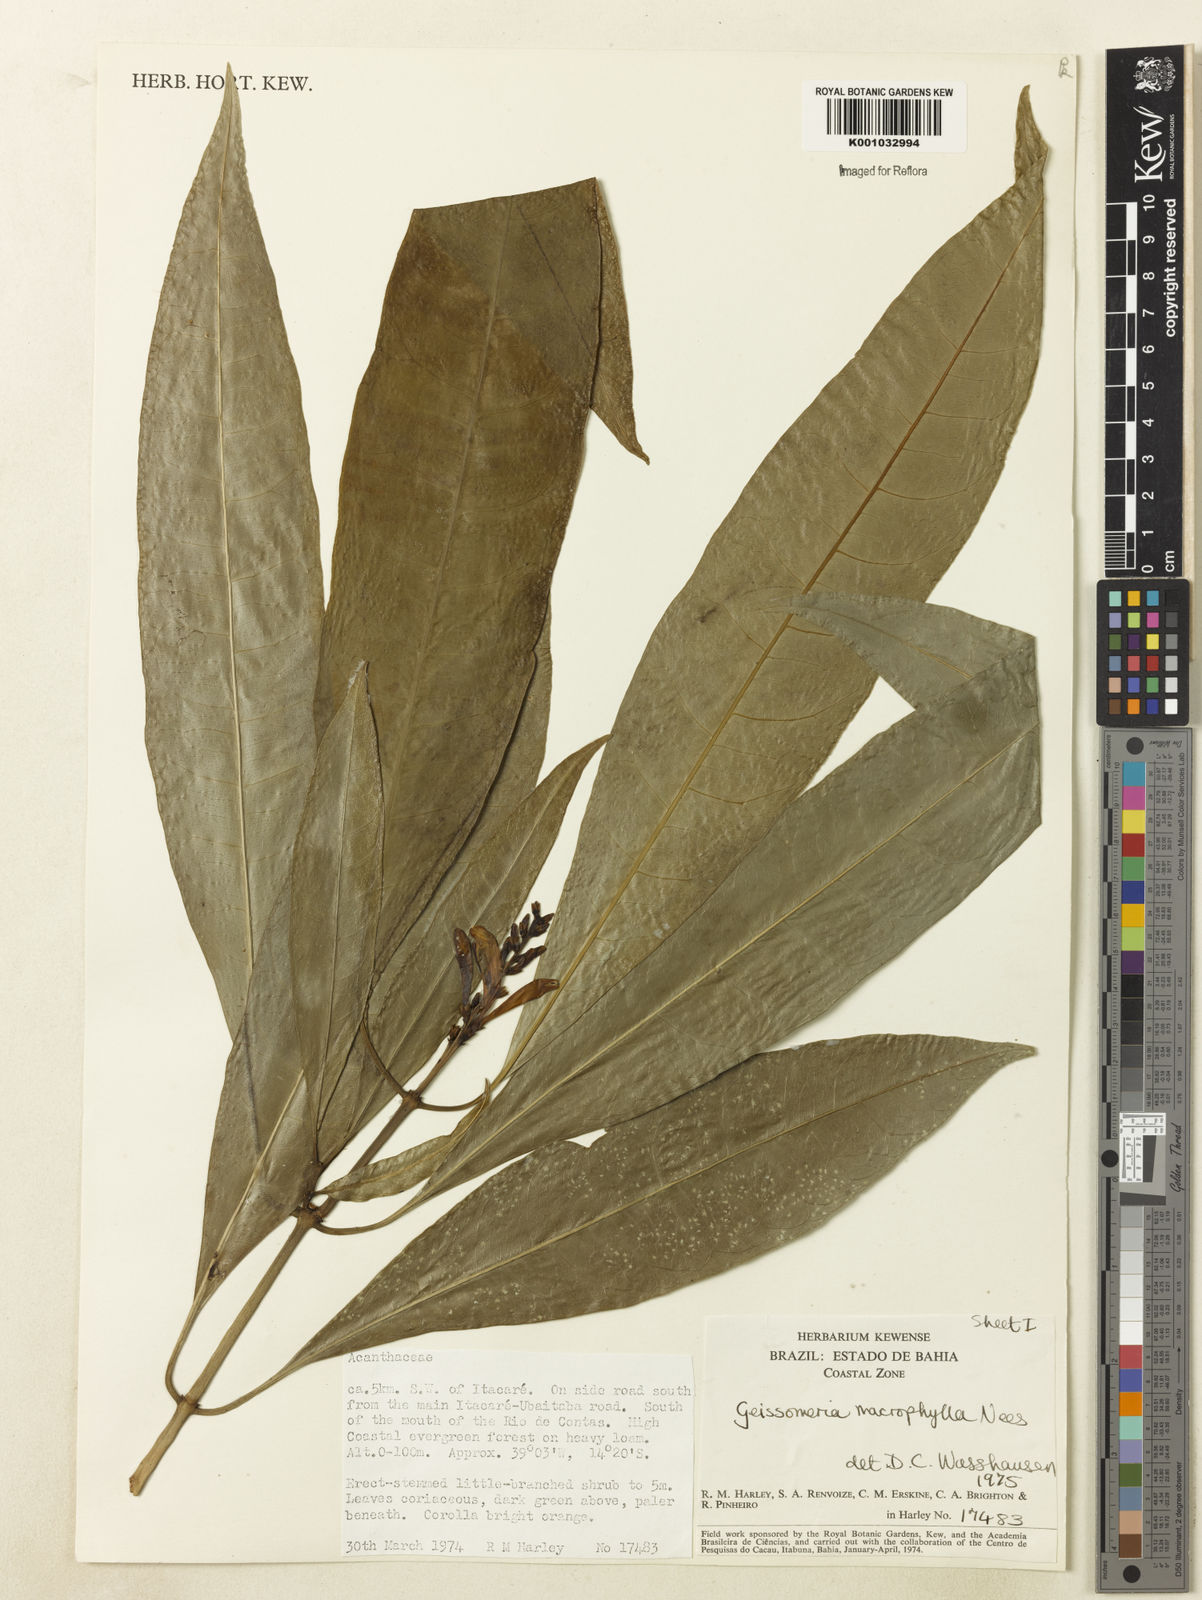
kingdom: Plantae
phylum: Tracheophyta
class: Magnoliopsida
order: Lamiales
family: Acanthaceae
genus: Aphelandra
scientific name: Aphelandra nitida
